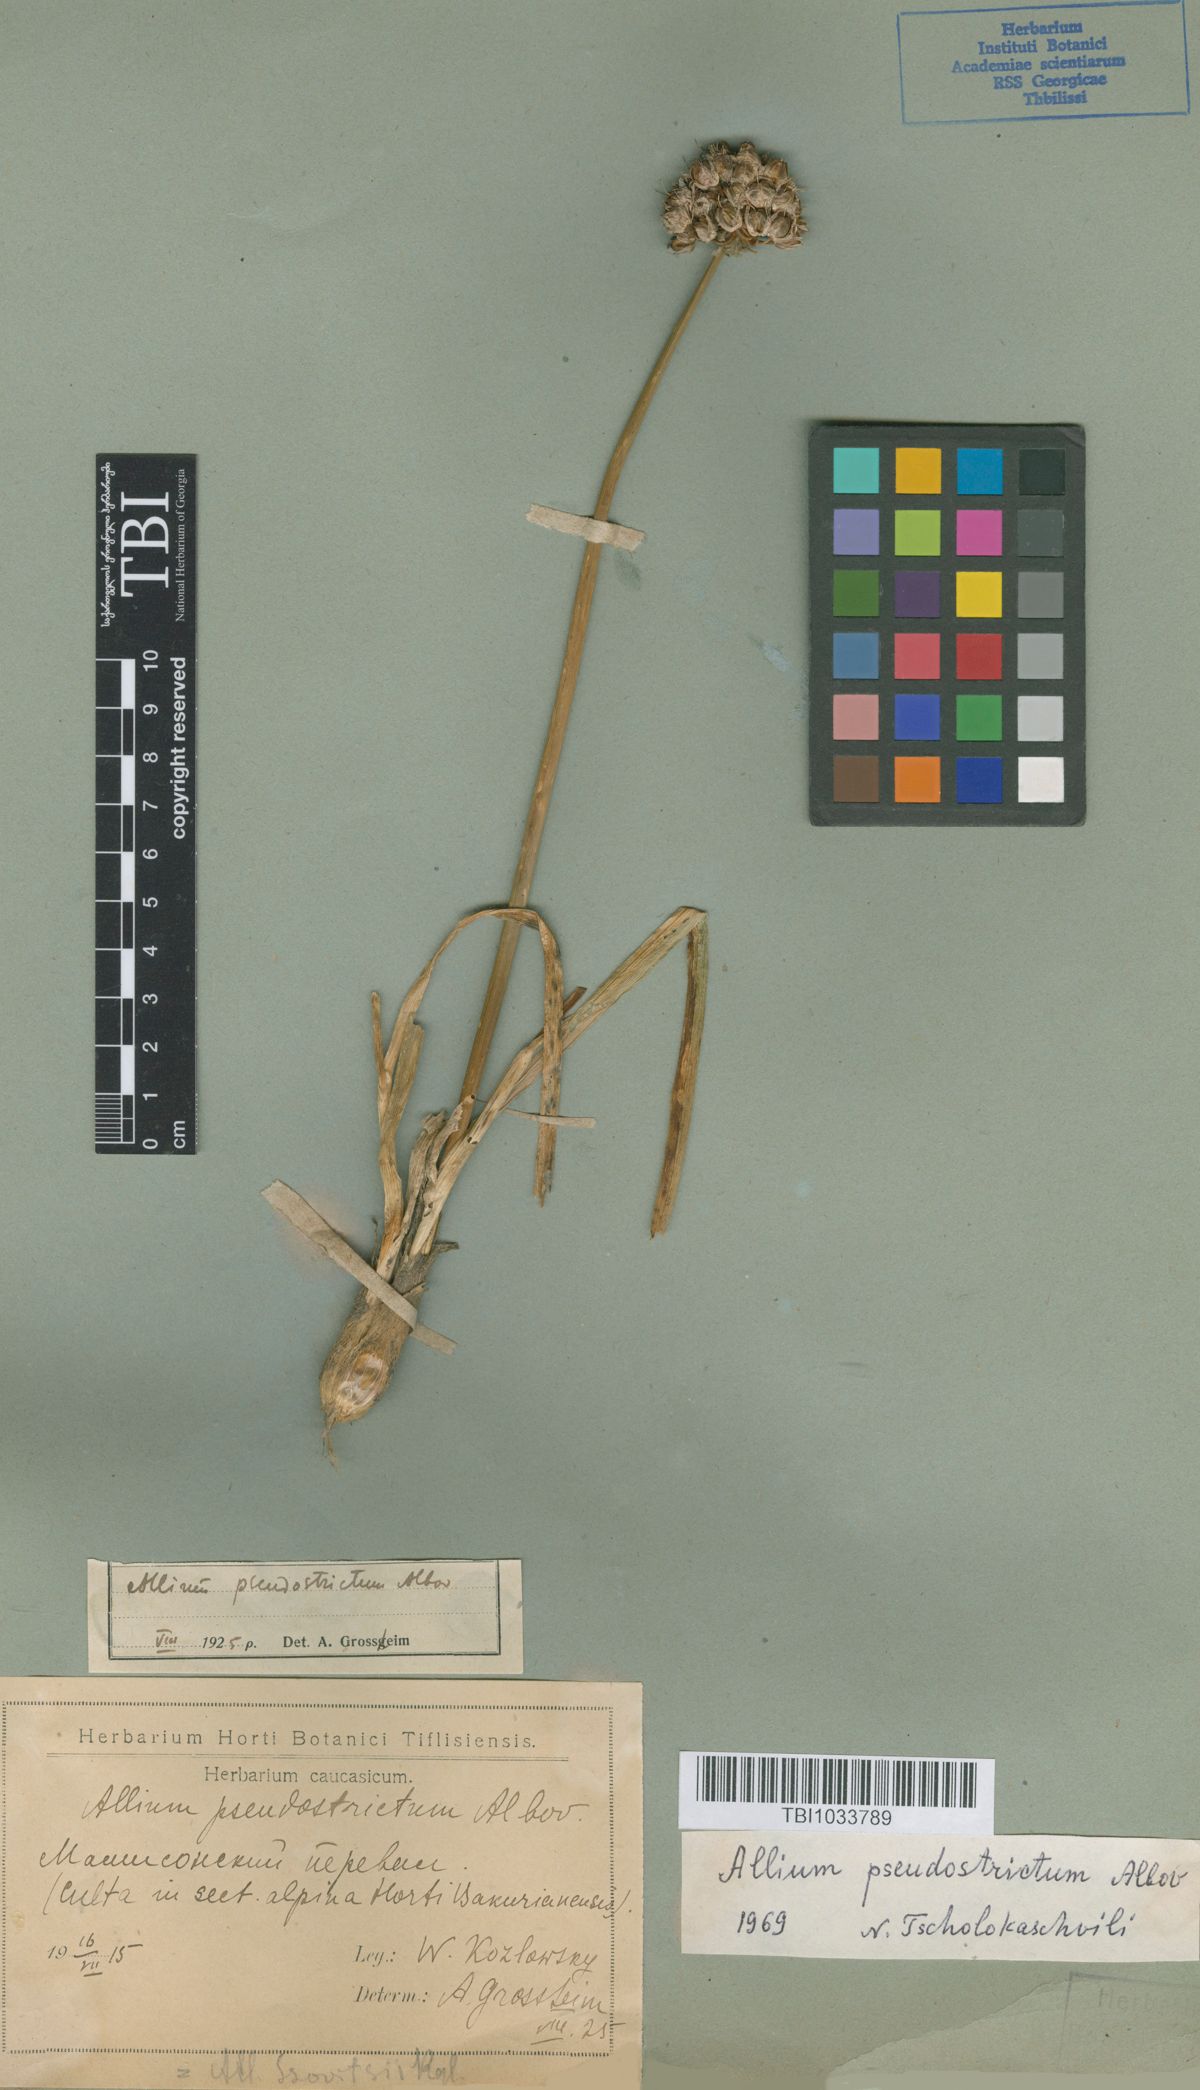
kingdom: Plantae
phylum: Tracheophyta
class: Liliopsida
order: Asparagales
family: Amaryllidaceae
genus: Allium
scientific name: Allium pseudostrictum
